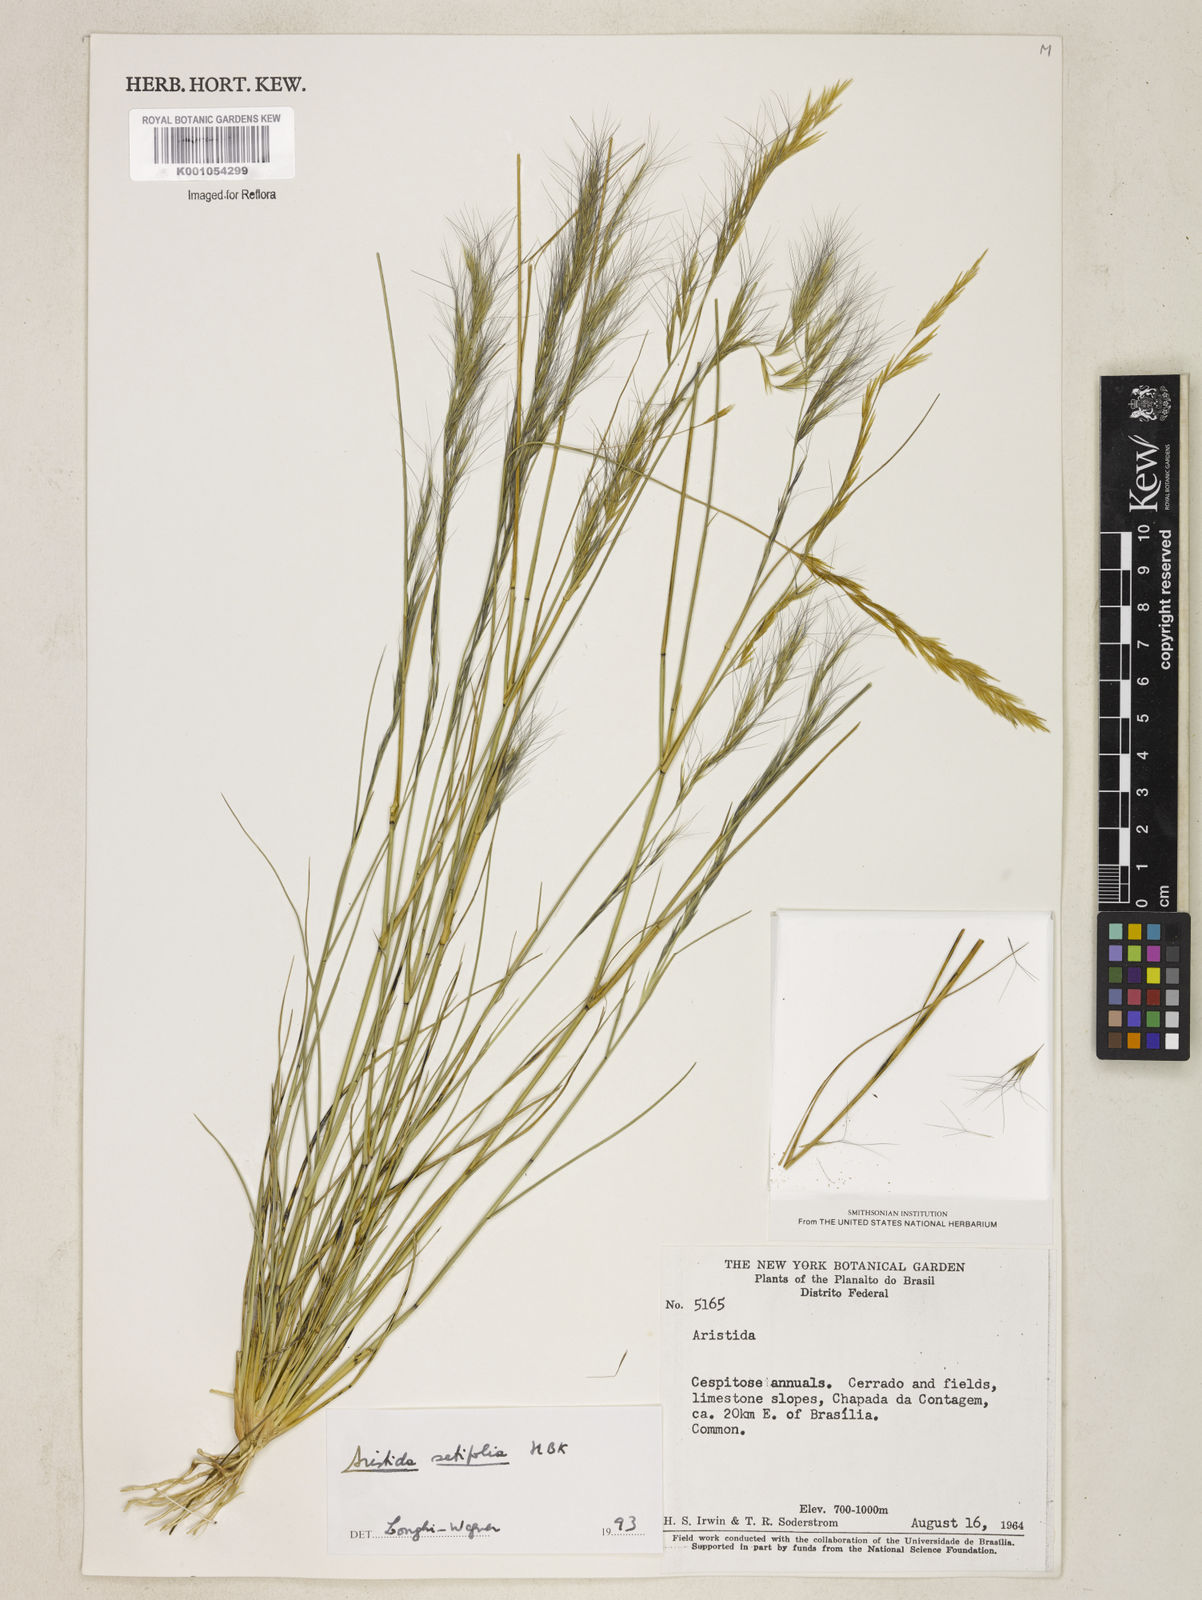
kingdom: Plantae
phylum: Tracheophyta
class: Liliopsida
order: Poales
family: Poaceae
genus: Aristida
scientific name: Aristida setifolia
